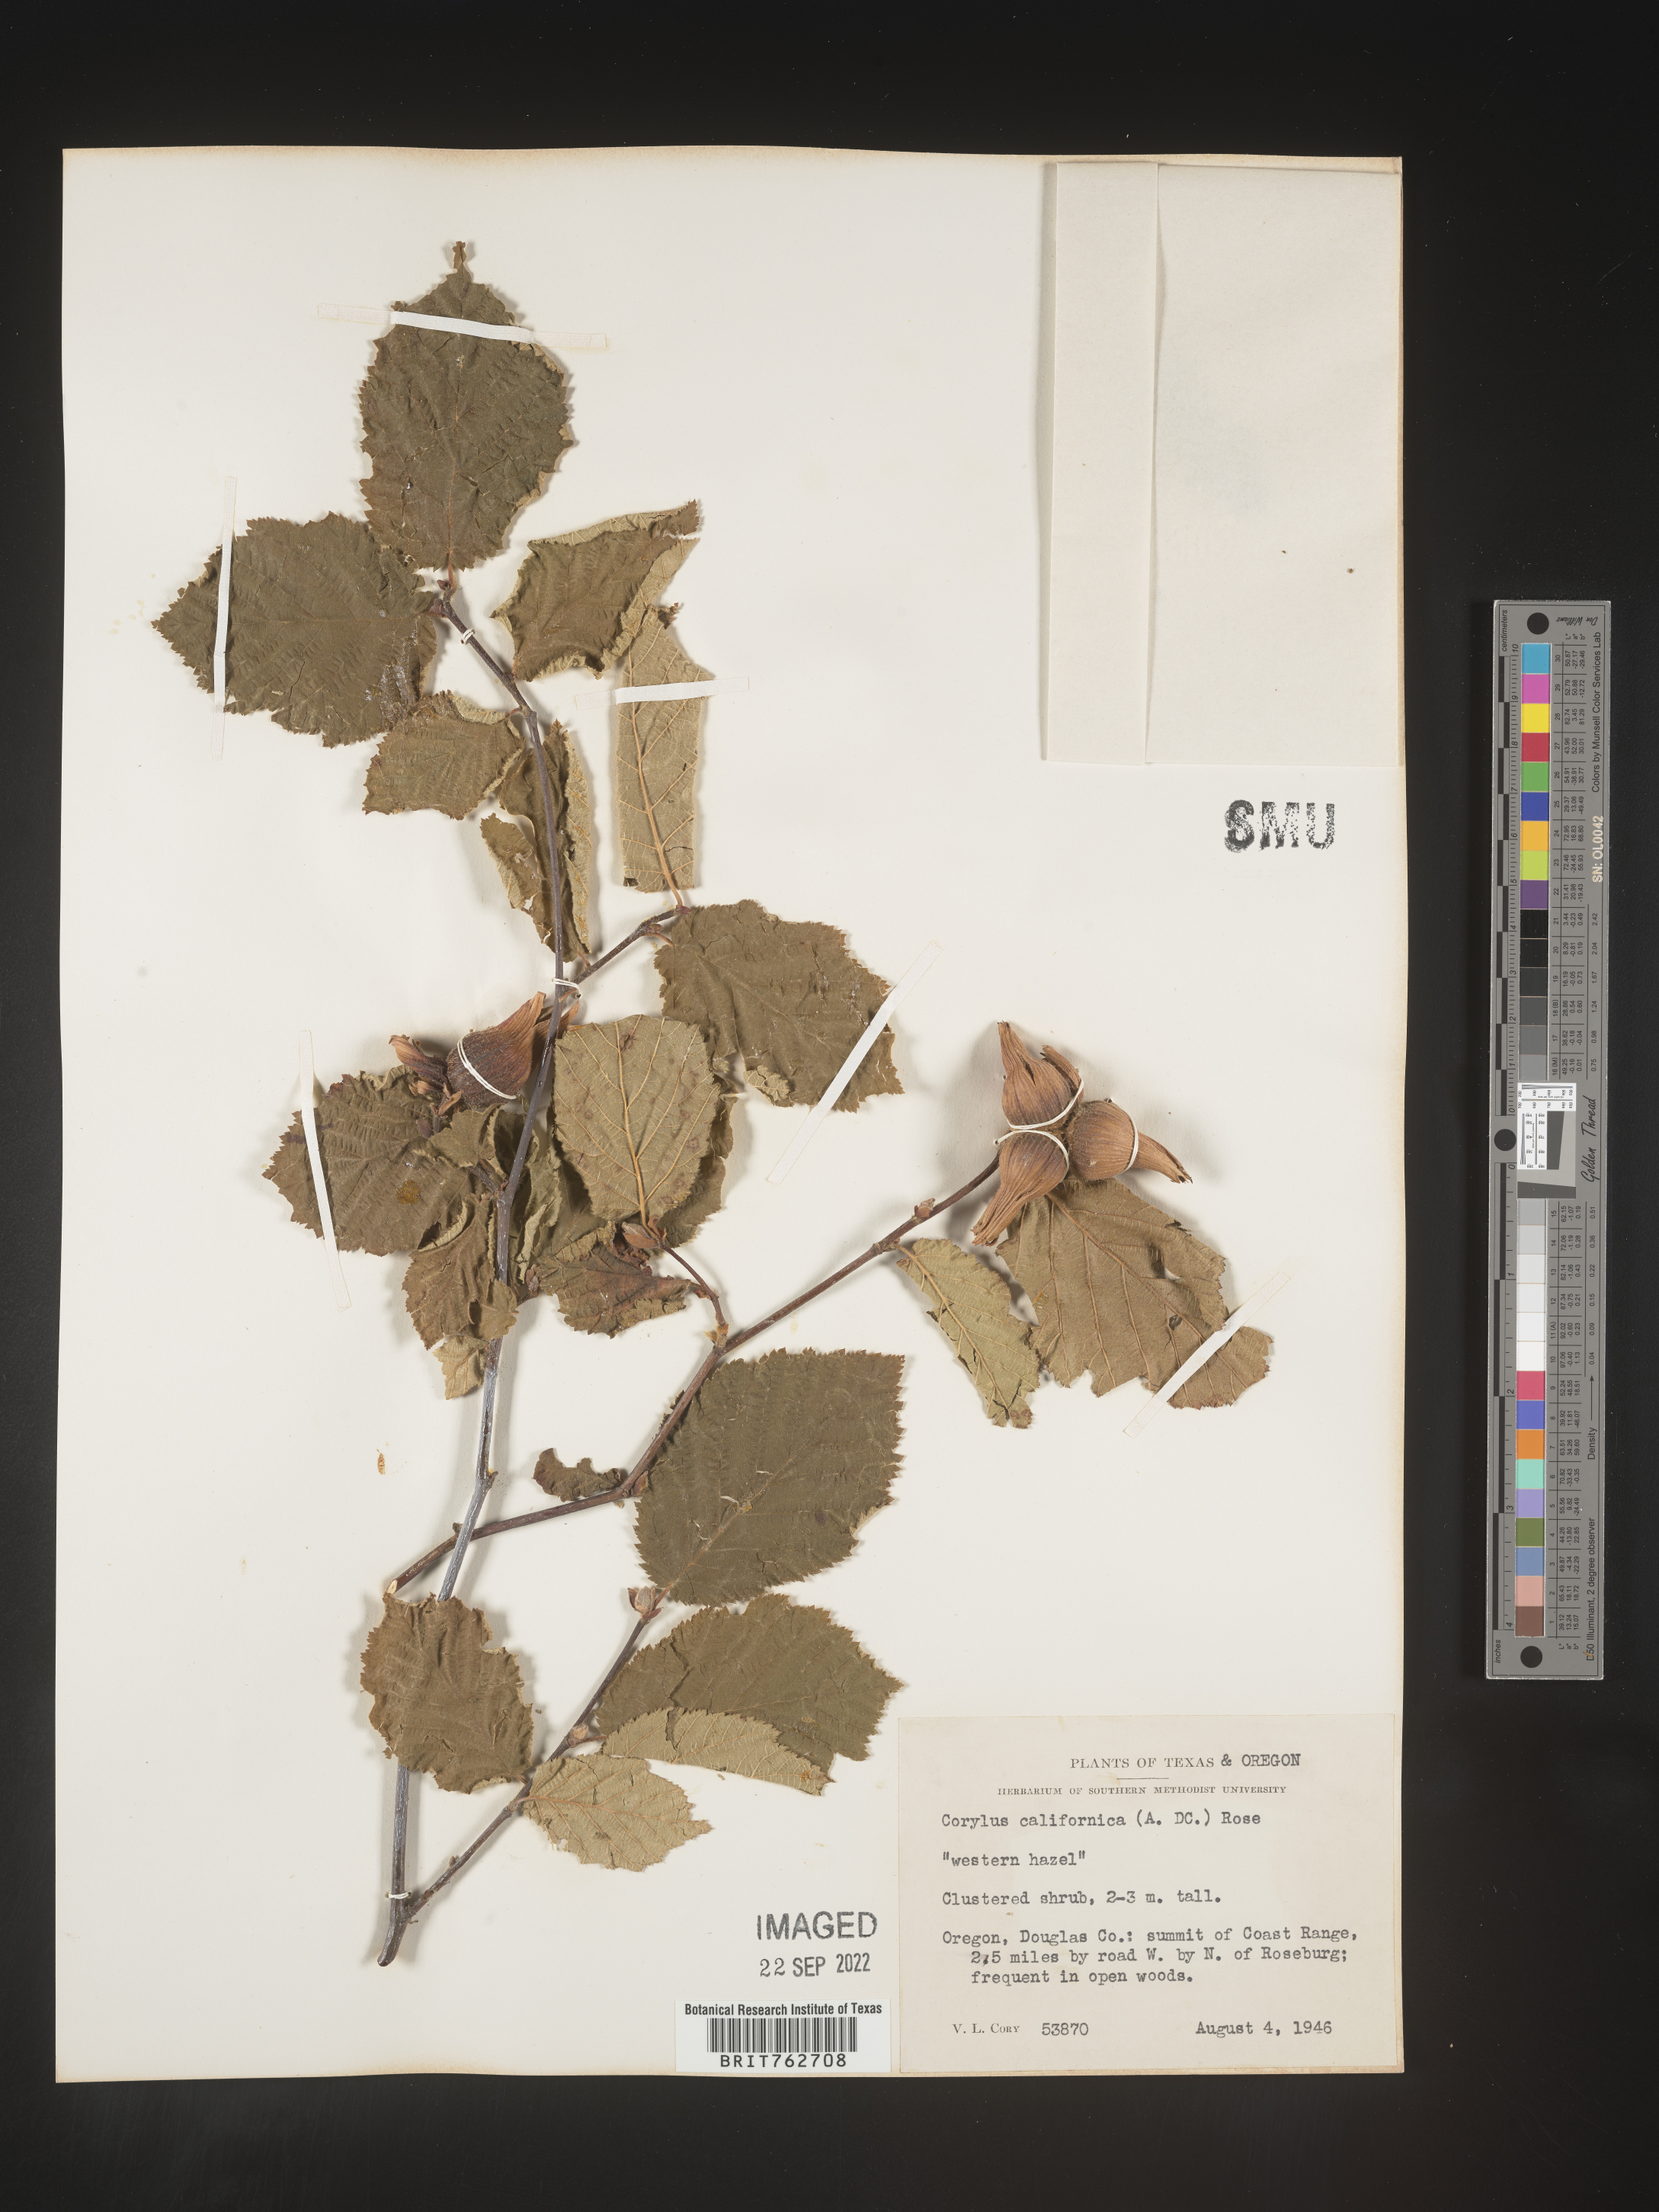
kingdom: Plantae
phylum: Tracheophyta
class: Magnoliopsida
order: Fagales
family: Betulaceae
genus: Corylus
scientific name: Corylus cornuta
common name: Beaked hazel
